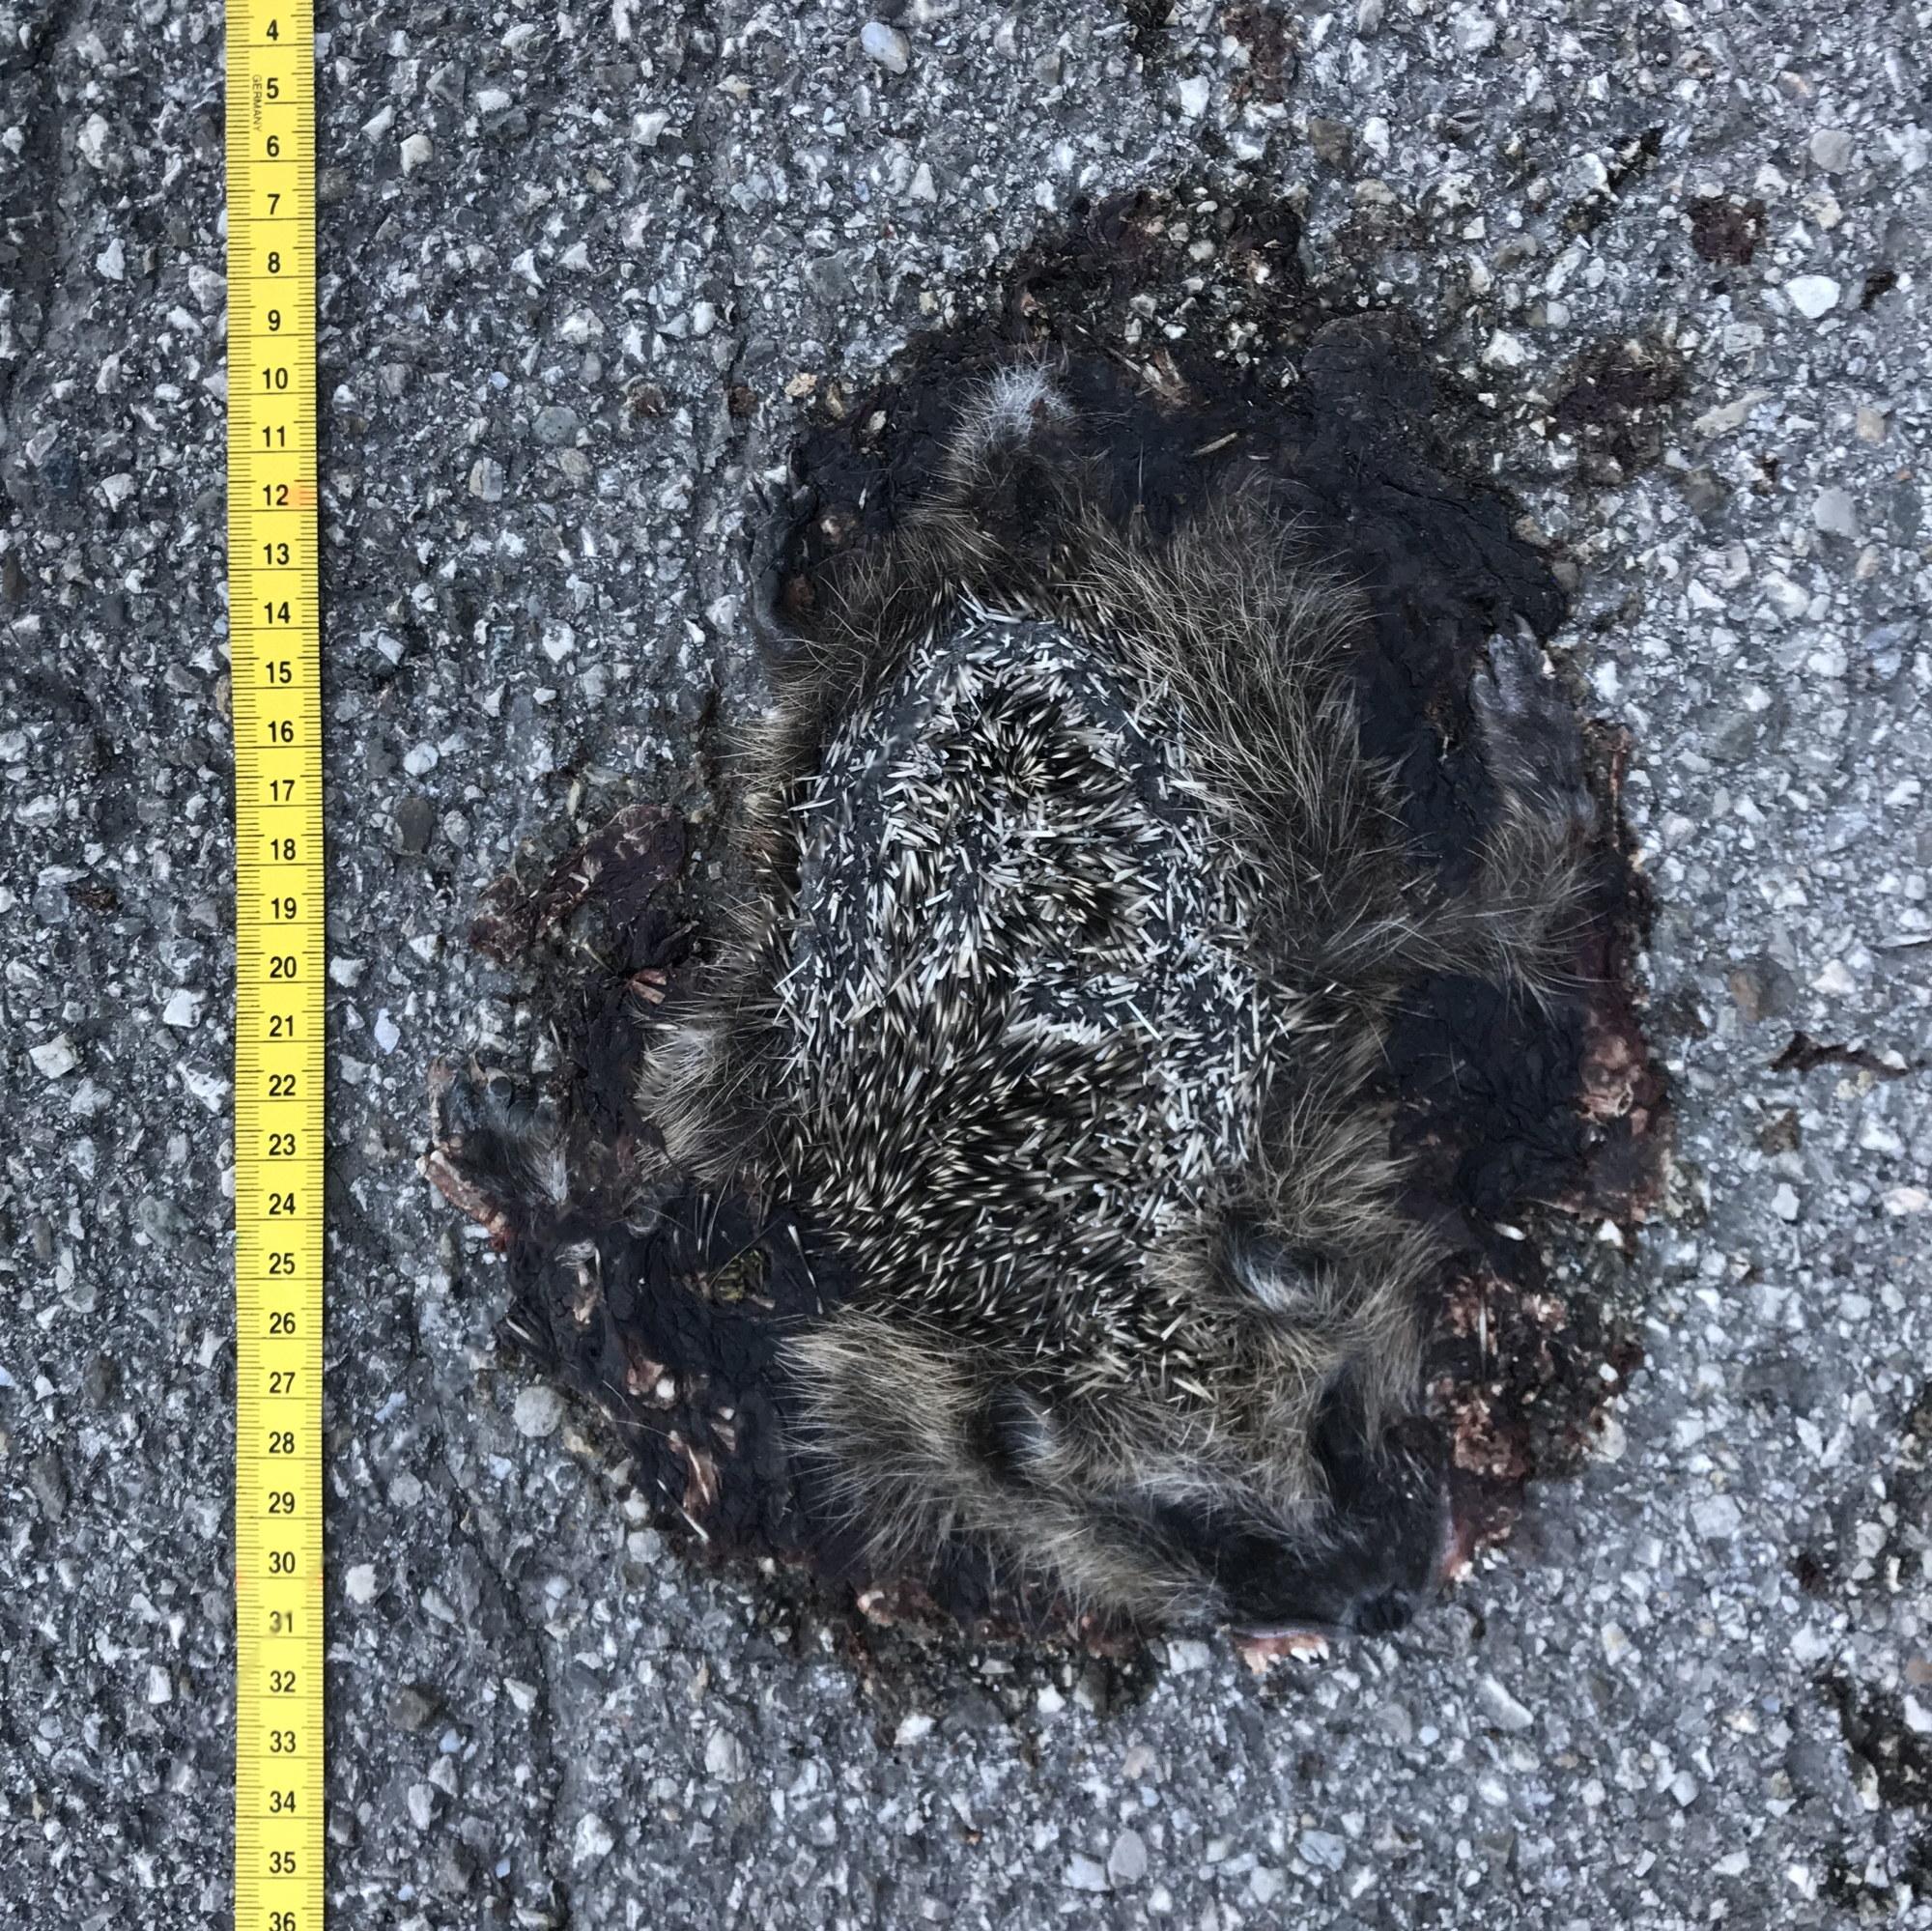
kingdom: Animalia
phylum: Chordata
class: Mammalia
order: Erinaceomorpha
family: Erinaceidae
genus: Erinaceus
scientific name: Erinaceus
